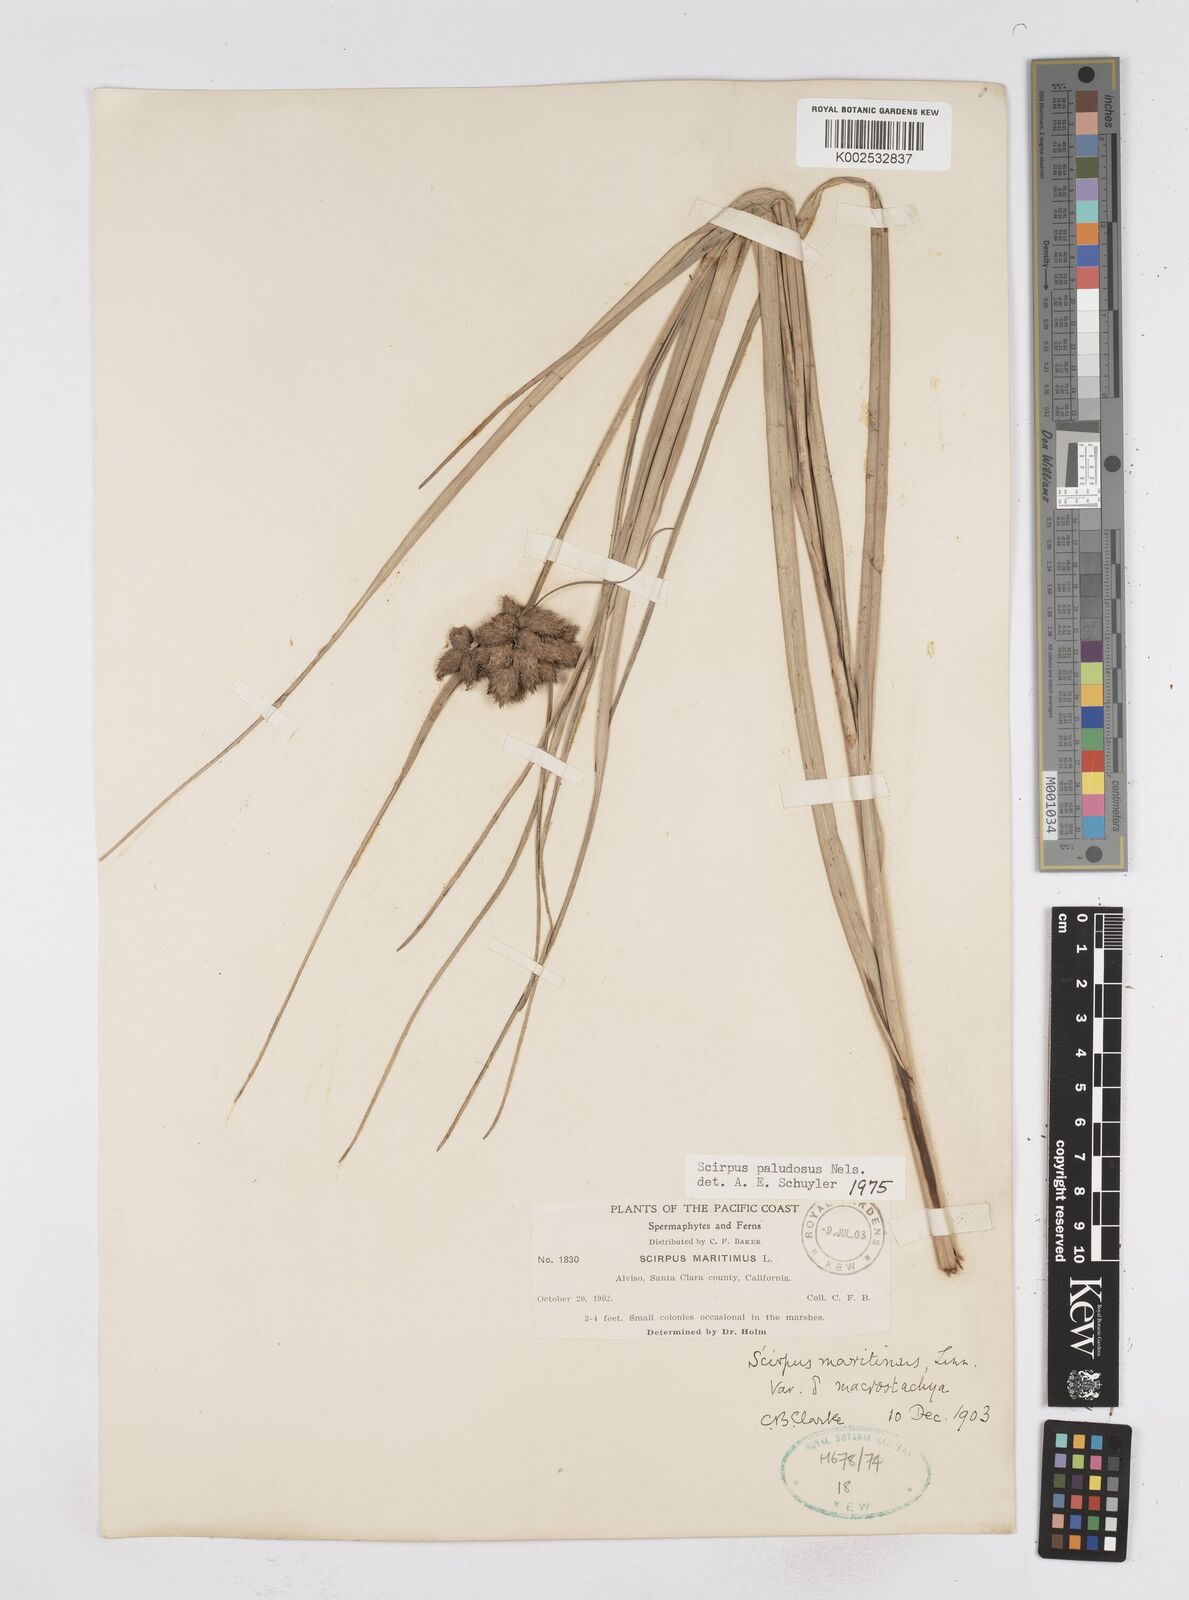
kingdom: Plantae
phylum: Tracheophyta
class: Liliopsida
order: Poales
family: Cyperaceae
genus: Bolboschoenus
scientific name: Bolboschoenus maritimus
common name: Sea club-rush
